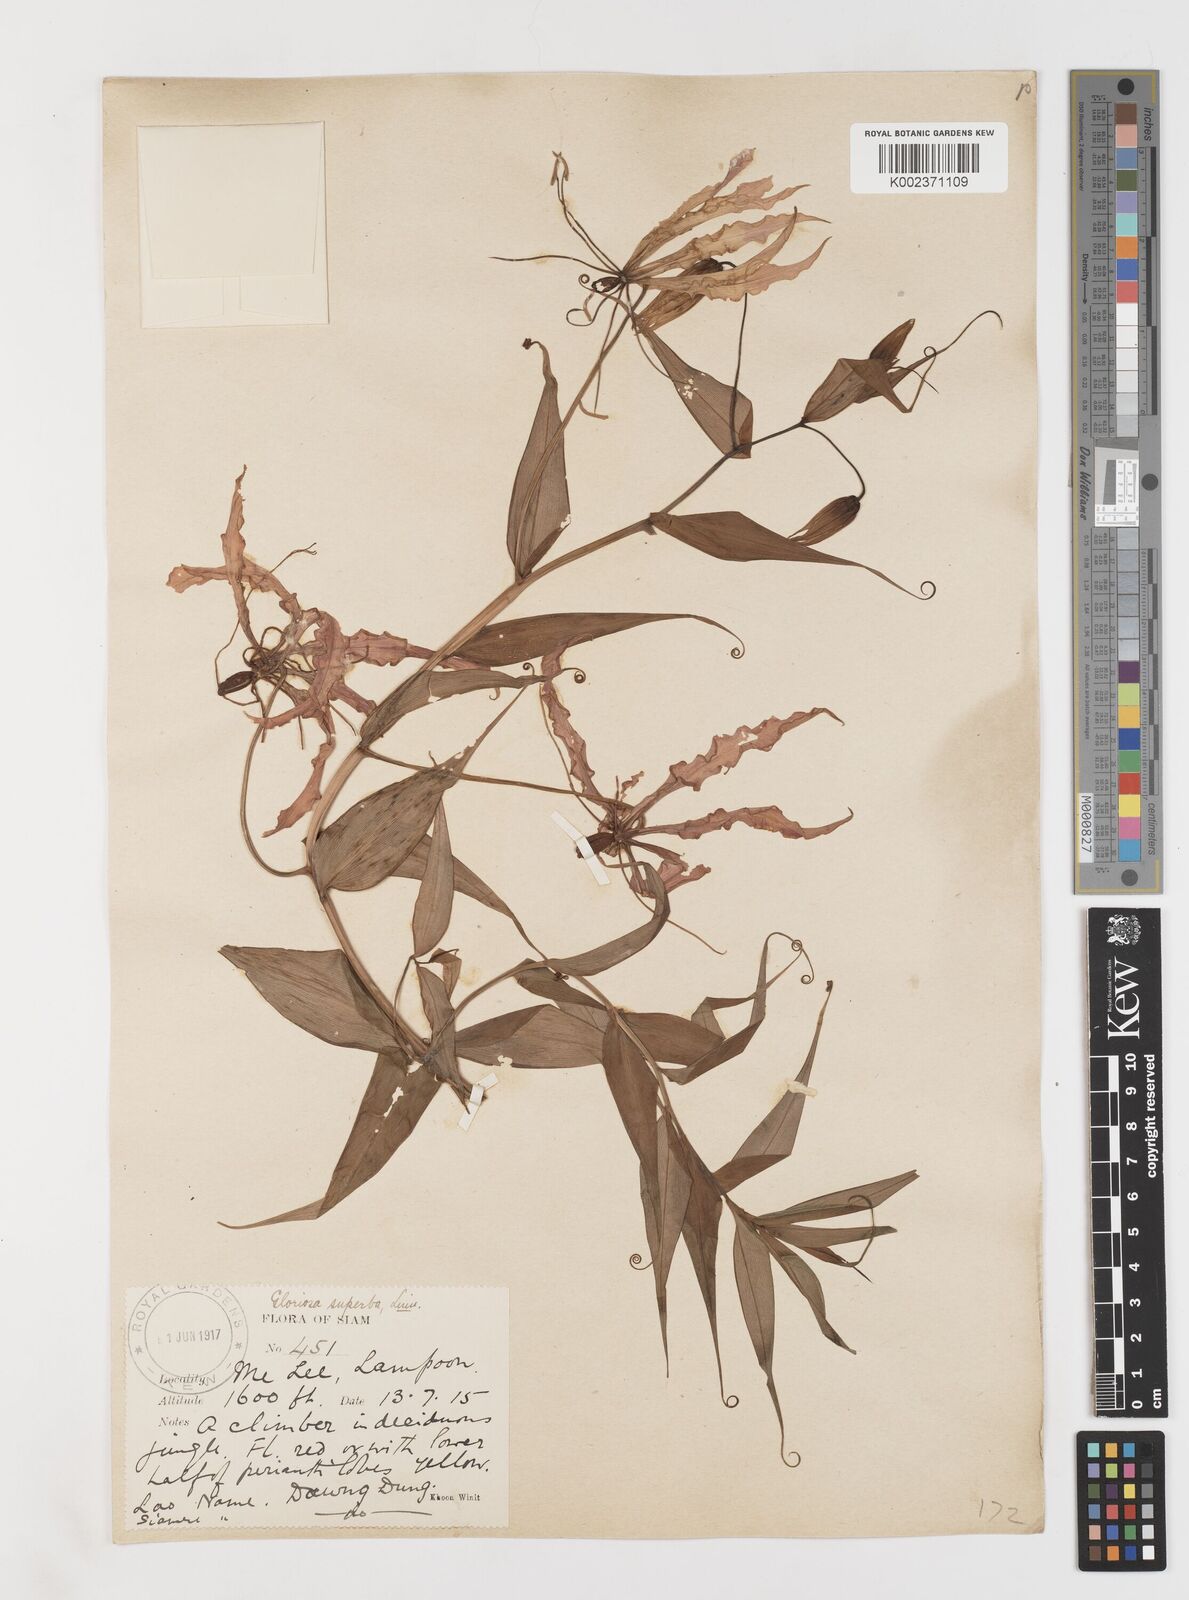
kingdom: Plantae
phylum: Tracheophyta
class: Liliopsida
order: Liliales
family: Colchicaceae
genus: Gloriosa
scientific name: Gloriosa superba
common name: Flame lily
